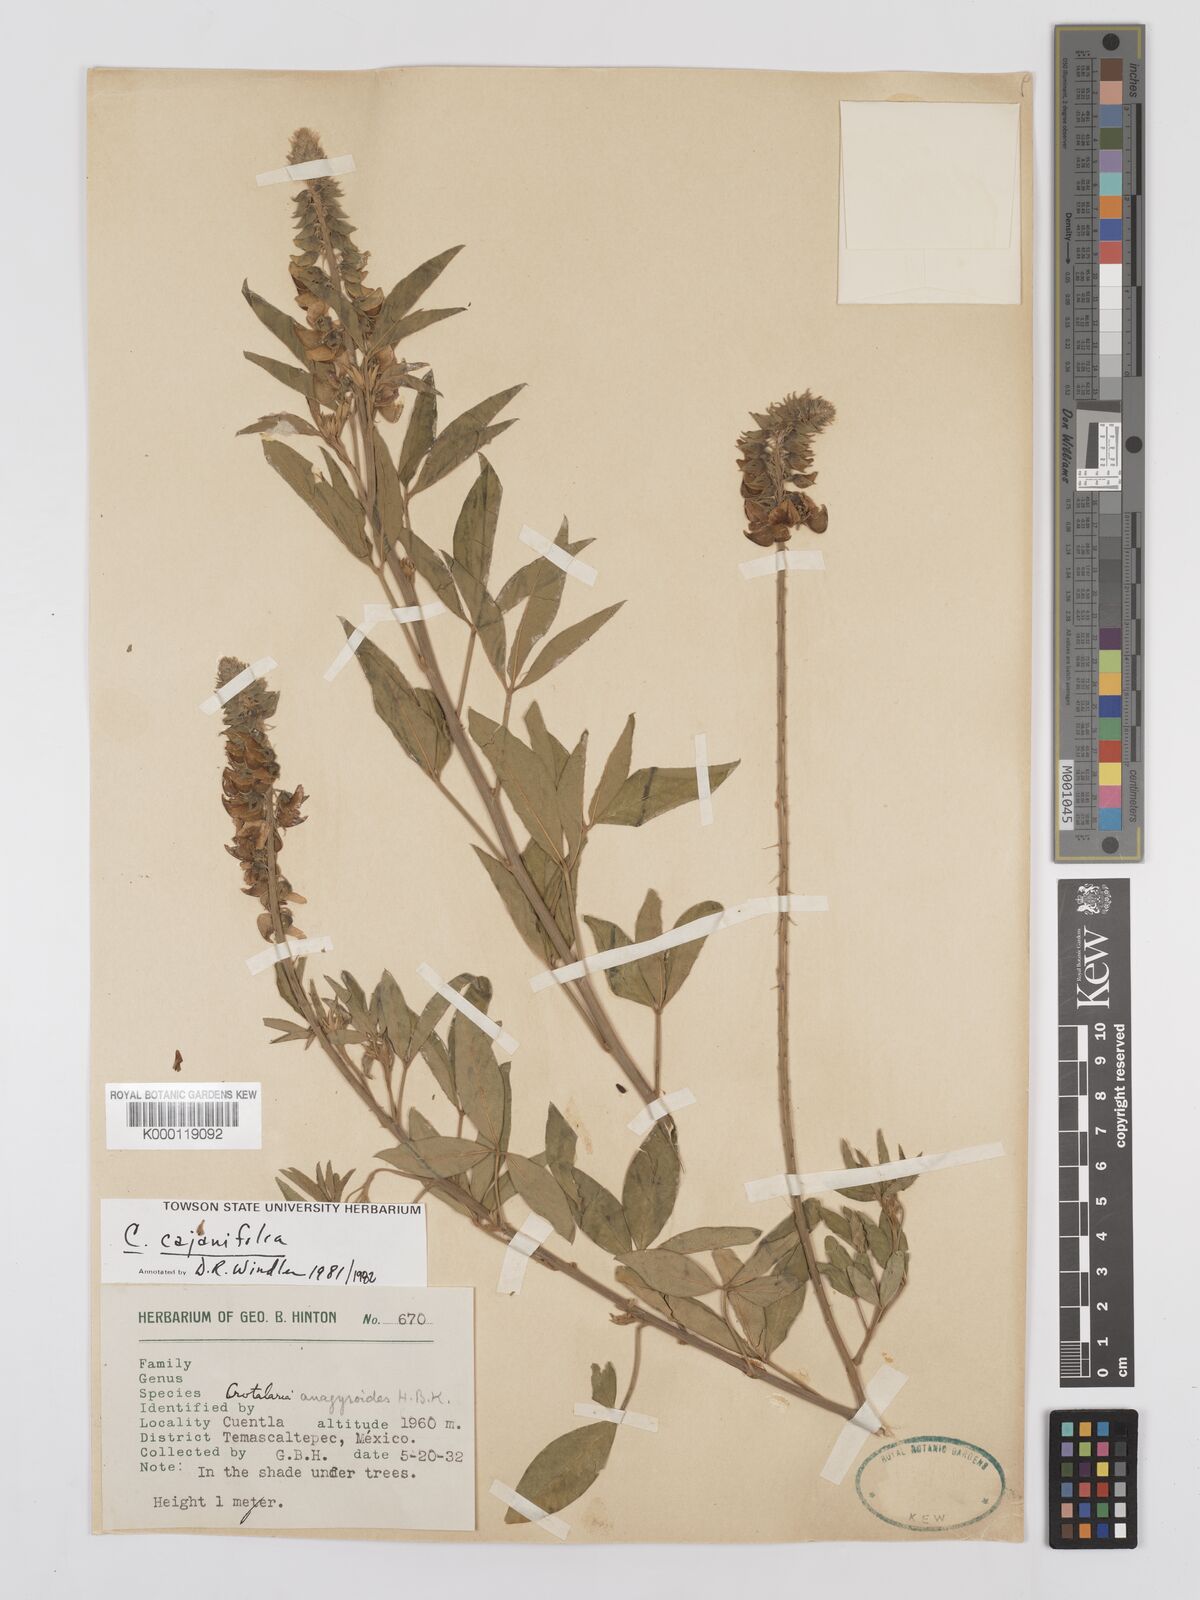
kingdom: Plantae
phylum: Tracheophyta
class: Magnoliopsida
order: Fabales
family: Fabaceae
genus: Crotalaria
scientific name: Crotalaria cajanifolia
